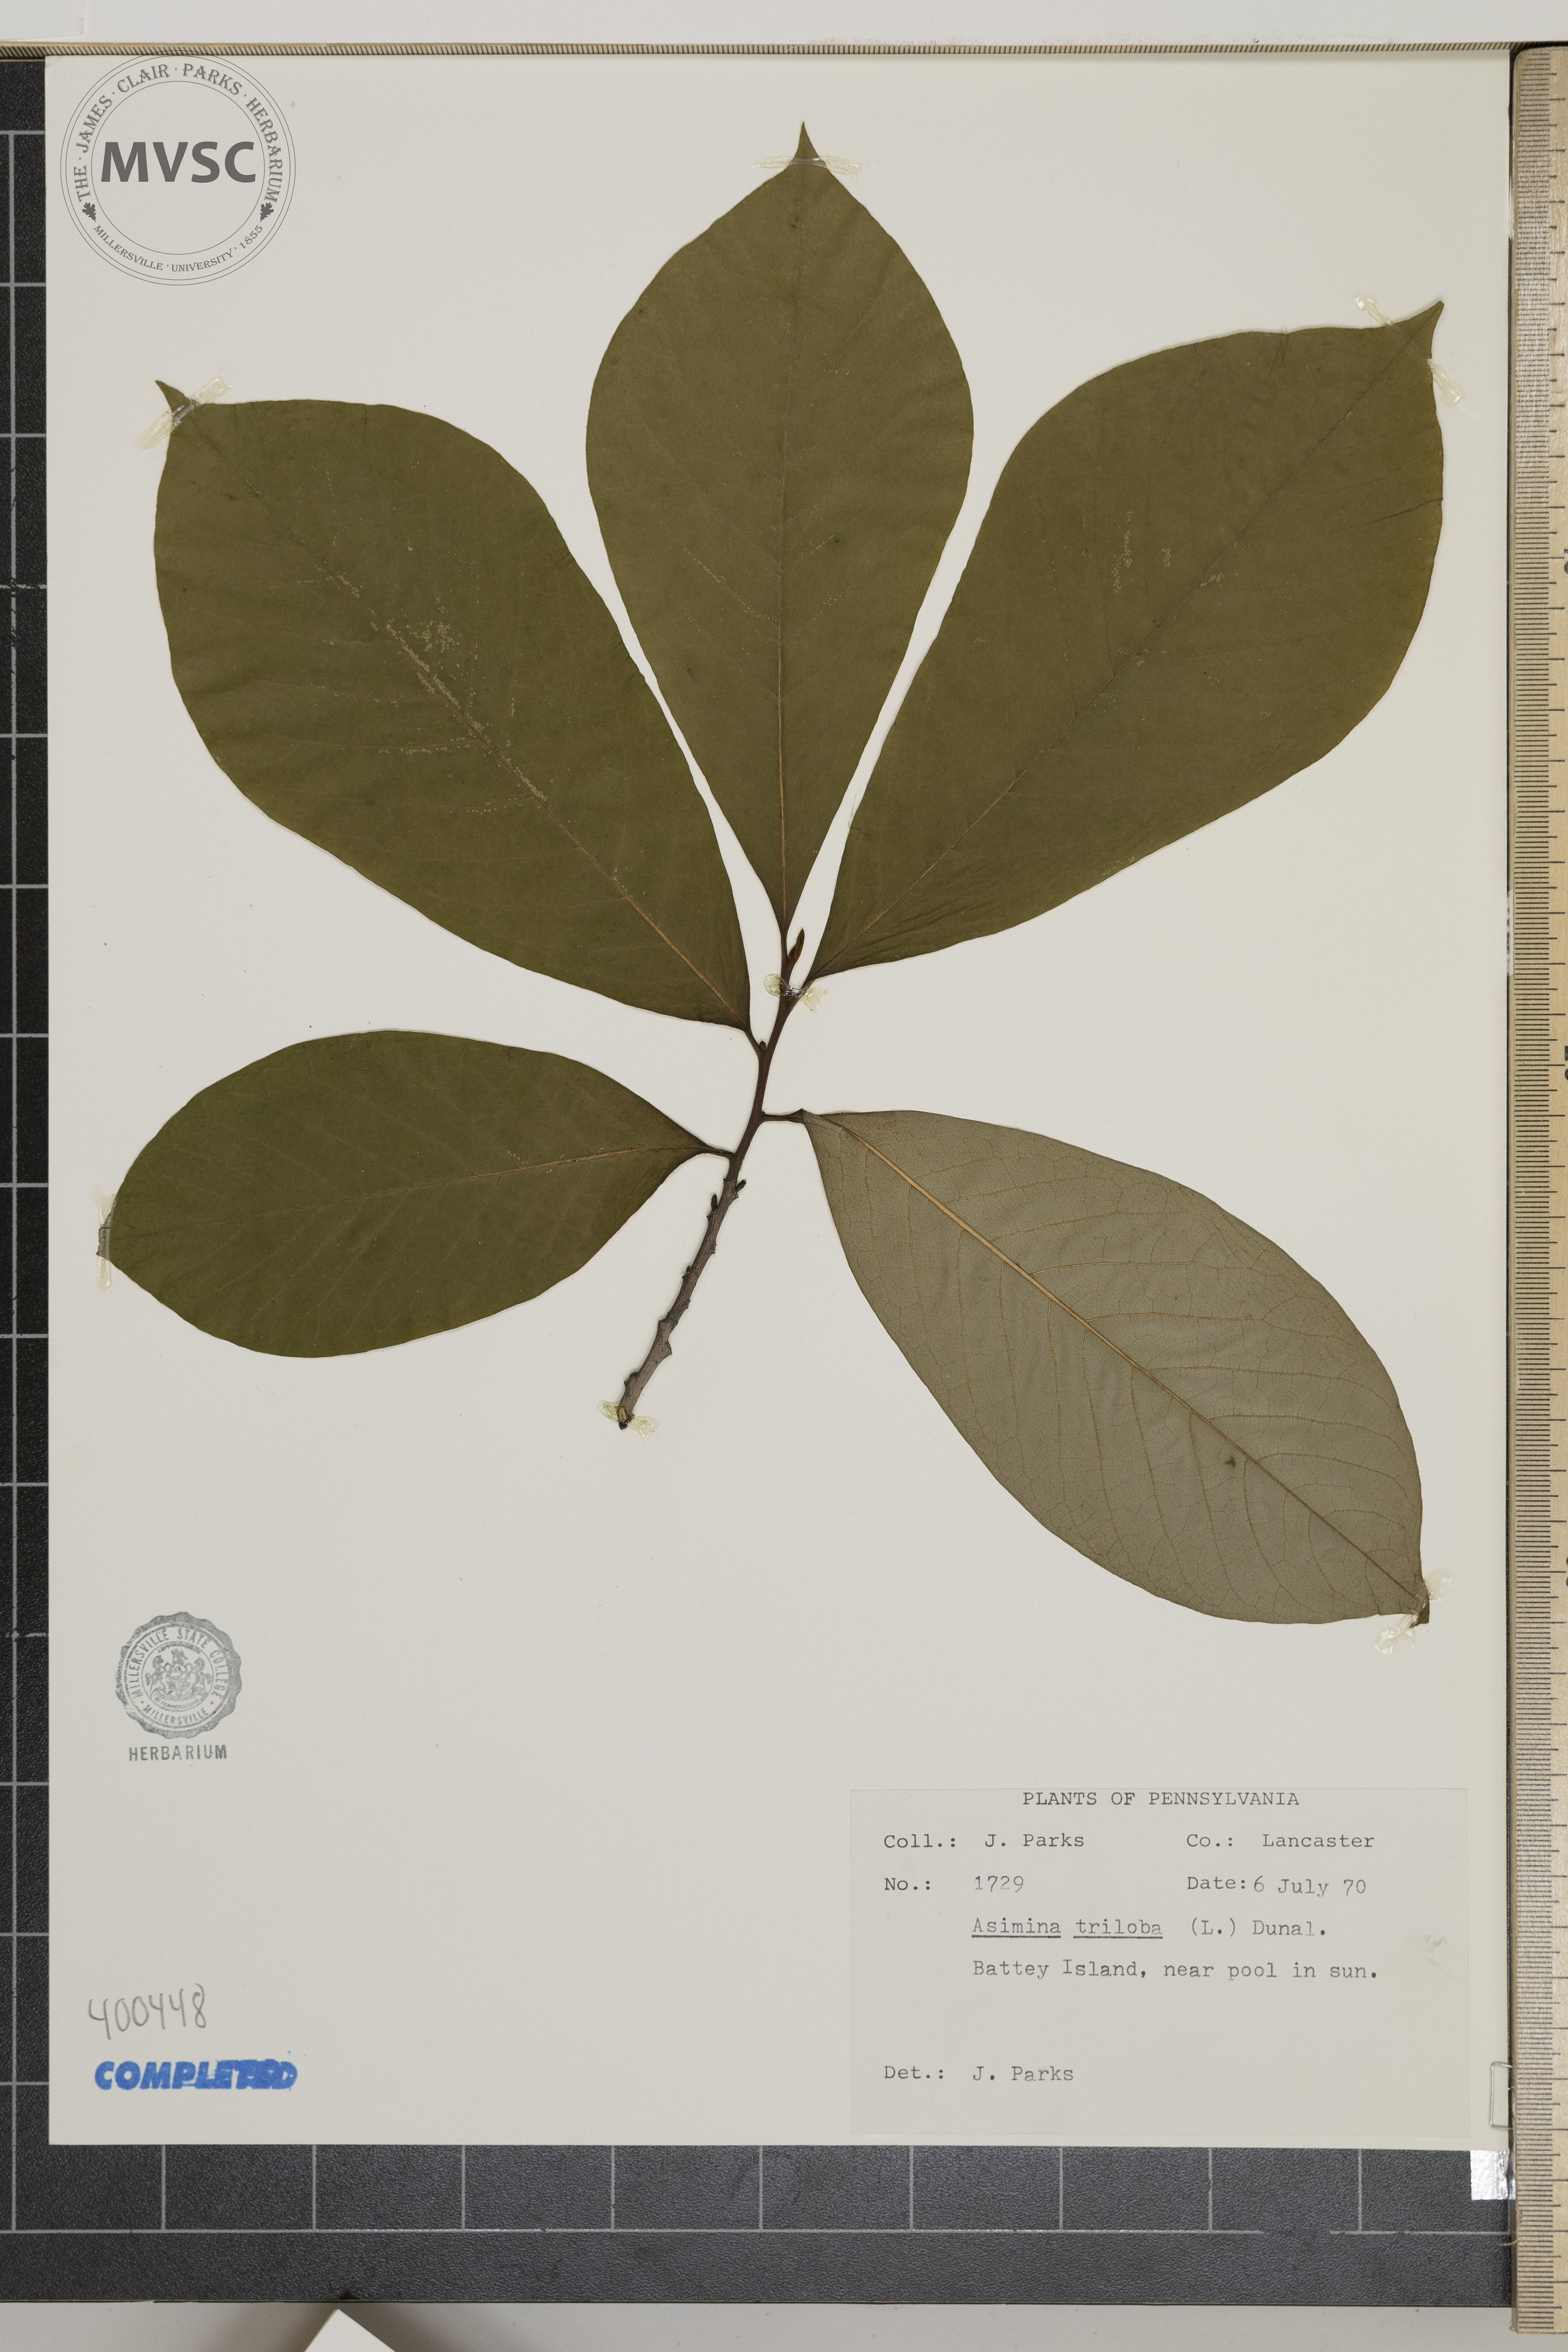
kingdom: Plantae
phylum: Tracheophyta
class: Magnoliopsida
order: Magnoliales
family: Annonaceae
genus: Asimina
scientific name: Asimina triloba
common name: pawpaw
